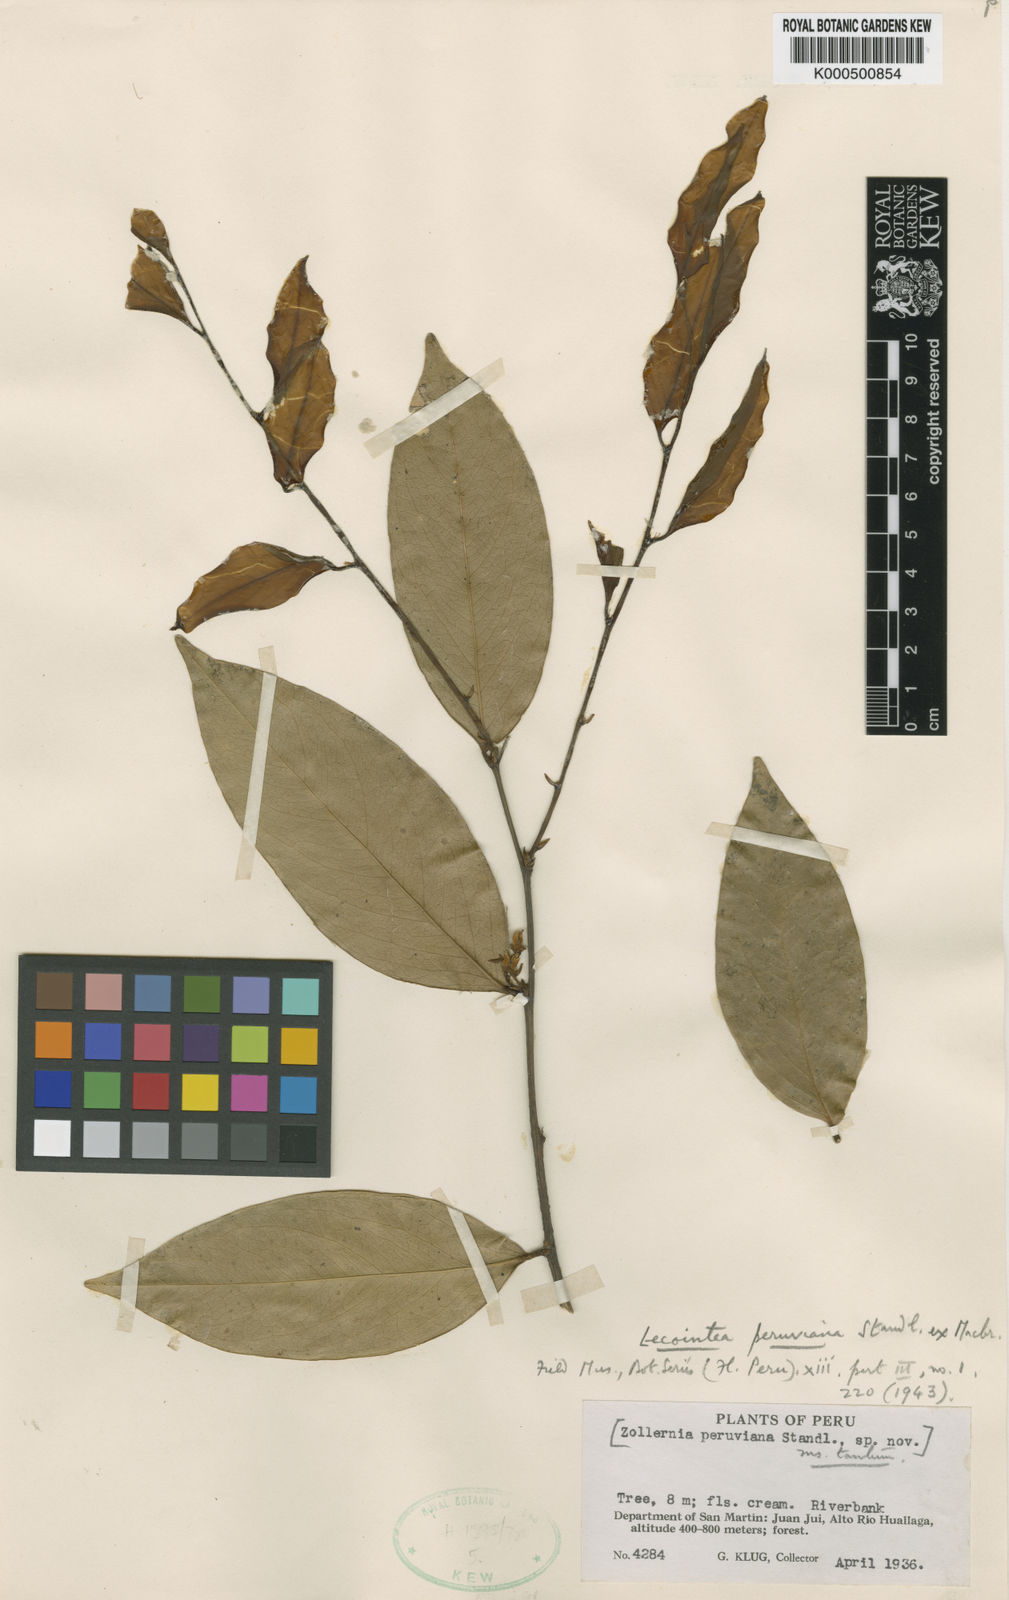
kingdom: Plantae
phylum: Tracheophyta
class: Magnoliopsida
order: Fabales
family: Fabaceae
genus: Lecointea
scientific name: Lecointea peruviana
